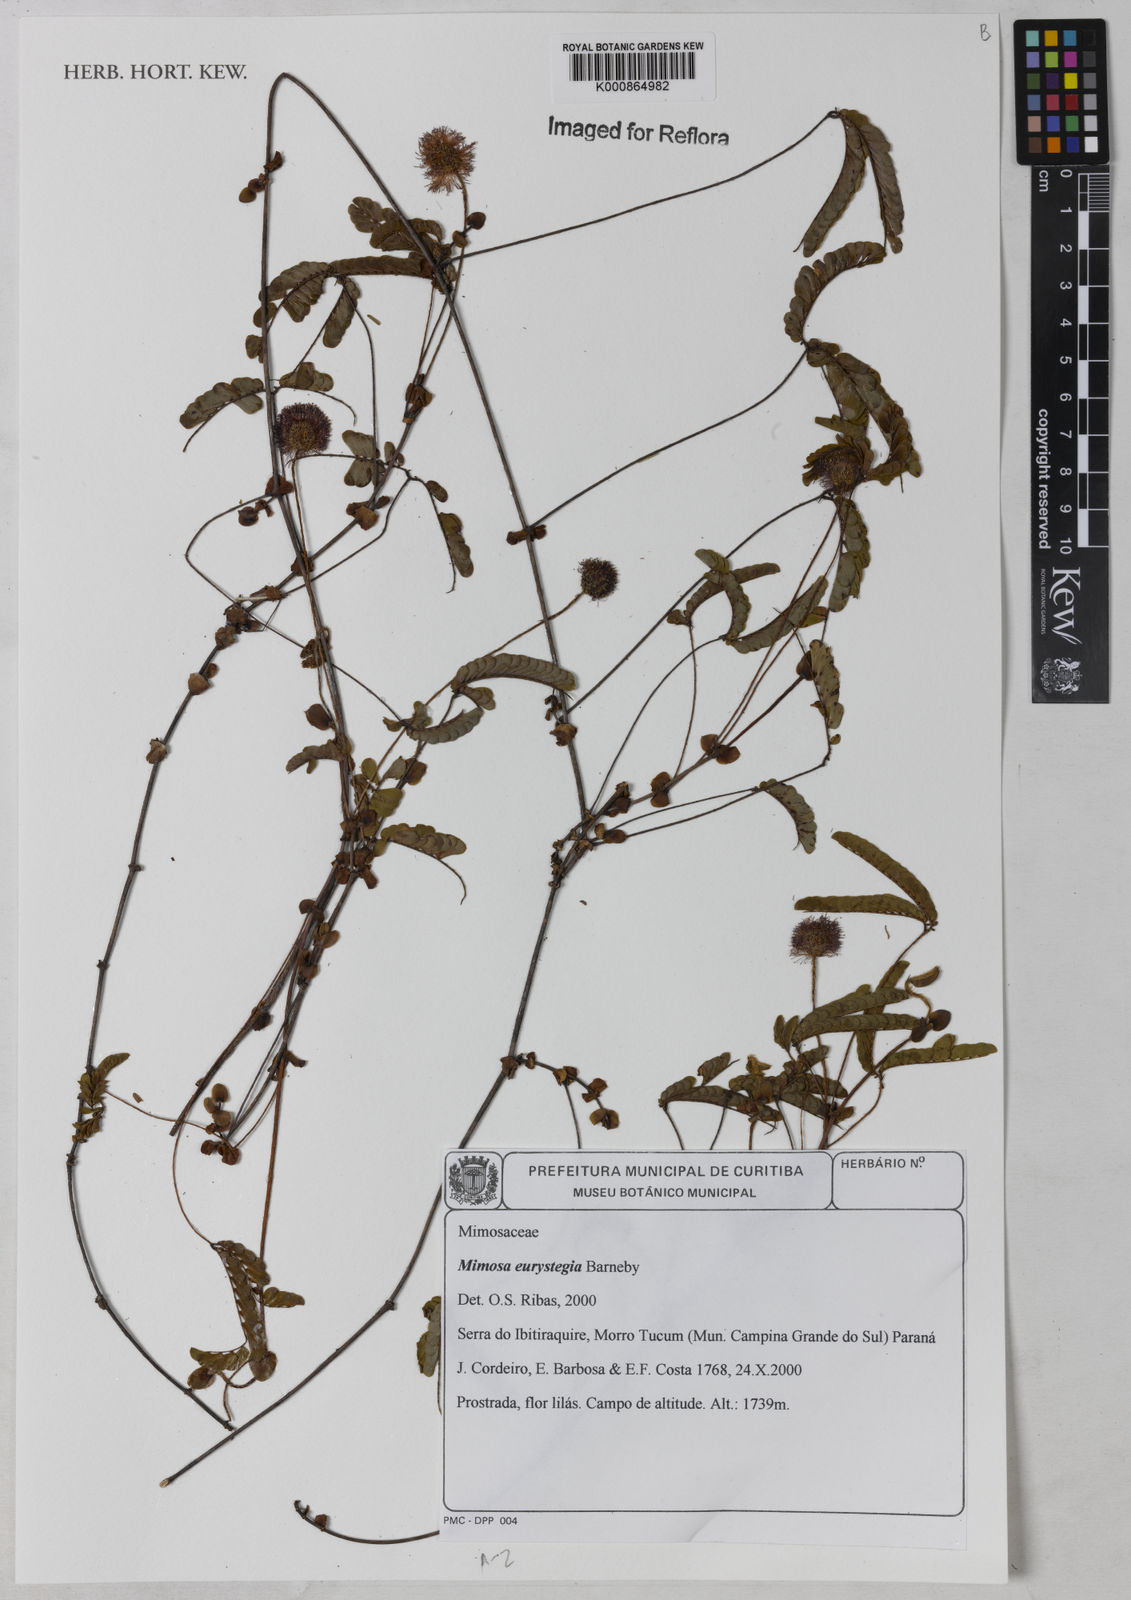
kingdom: Plantae
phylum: Tracheophyta
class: Magnoliopsida
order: Fabales
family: Fabaceae
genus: Mimosa
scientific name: Mimosa eurystegia
